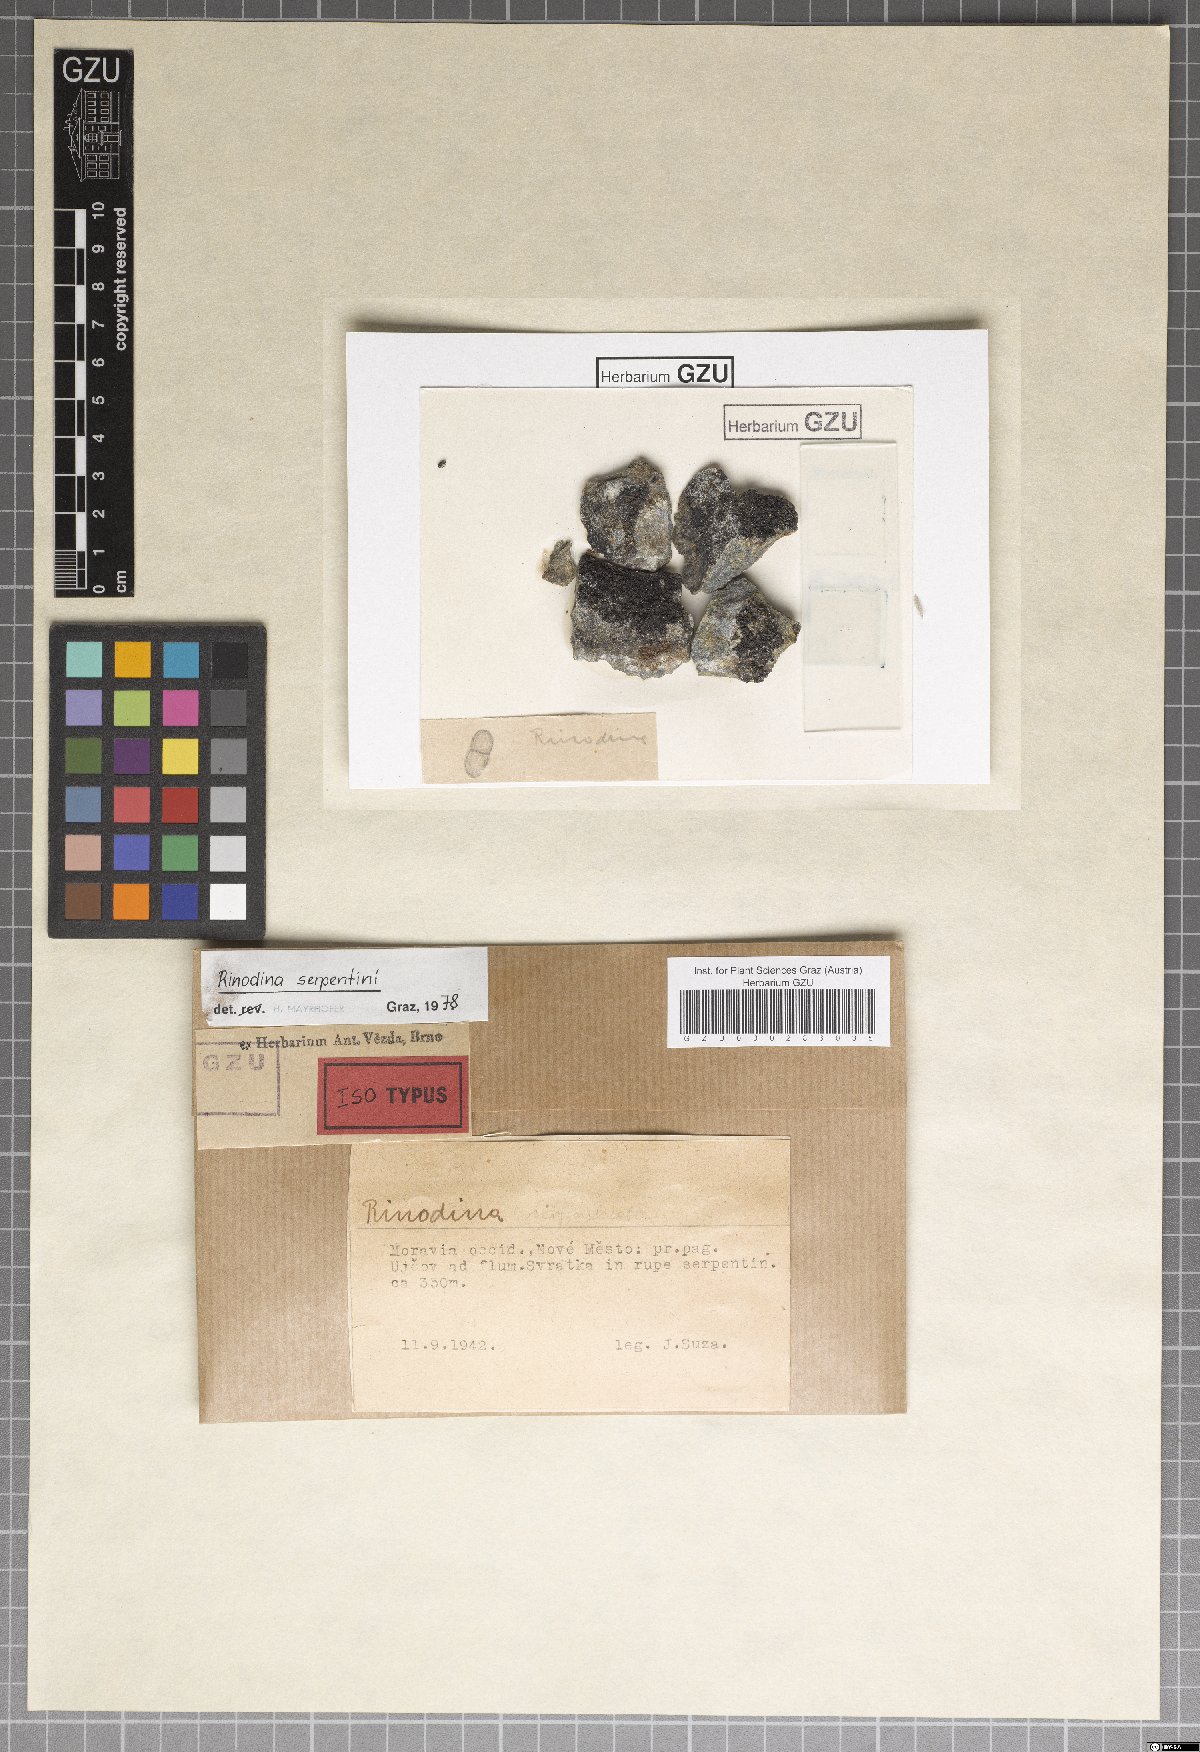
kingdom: Fungi
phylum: Ascomycota
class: Lecanoromycetes
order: Caliciales
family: Physciaceae
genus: Rinodina
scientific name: Rinodina rinodinoides
